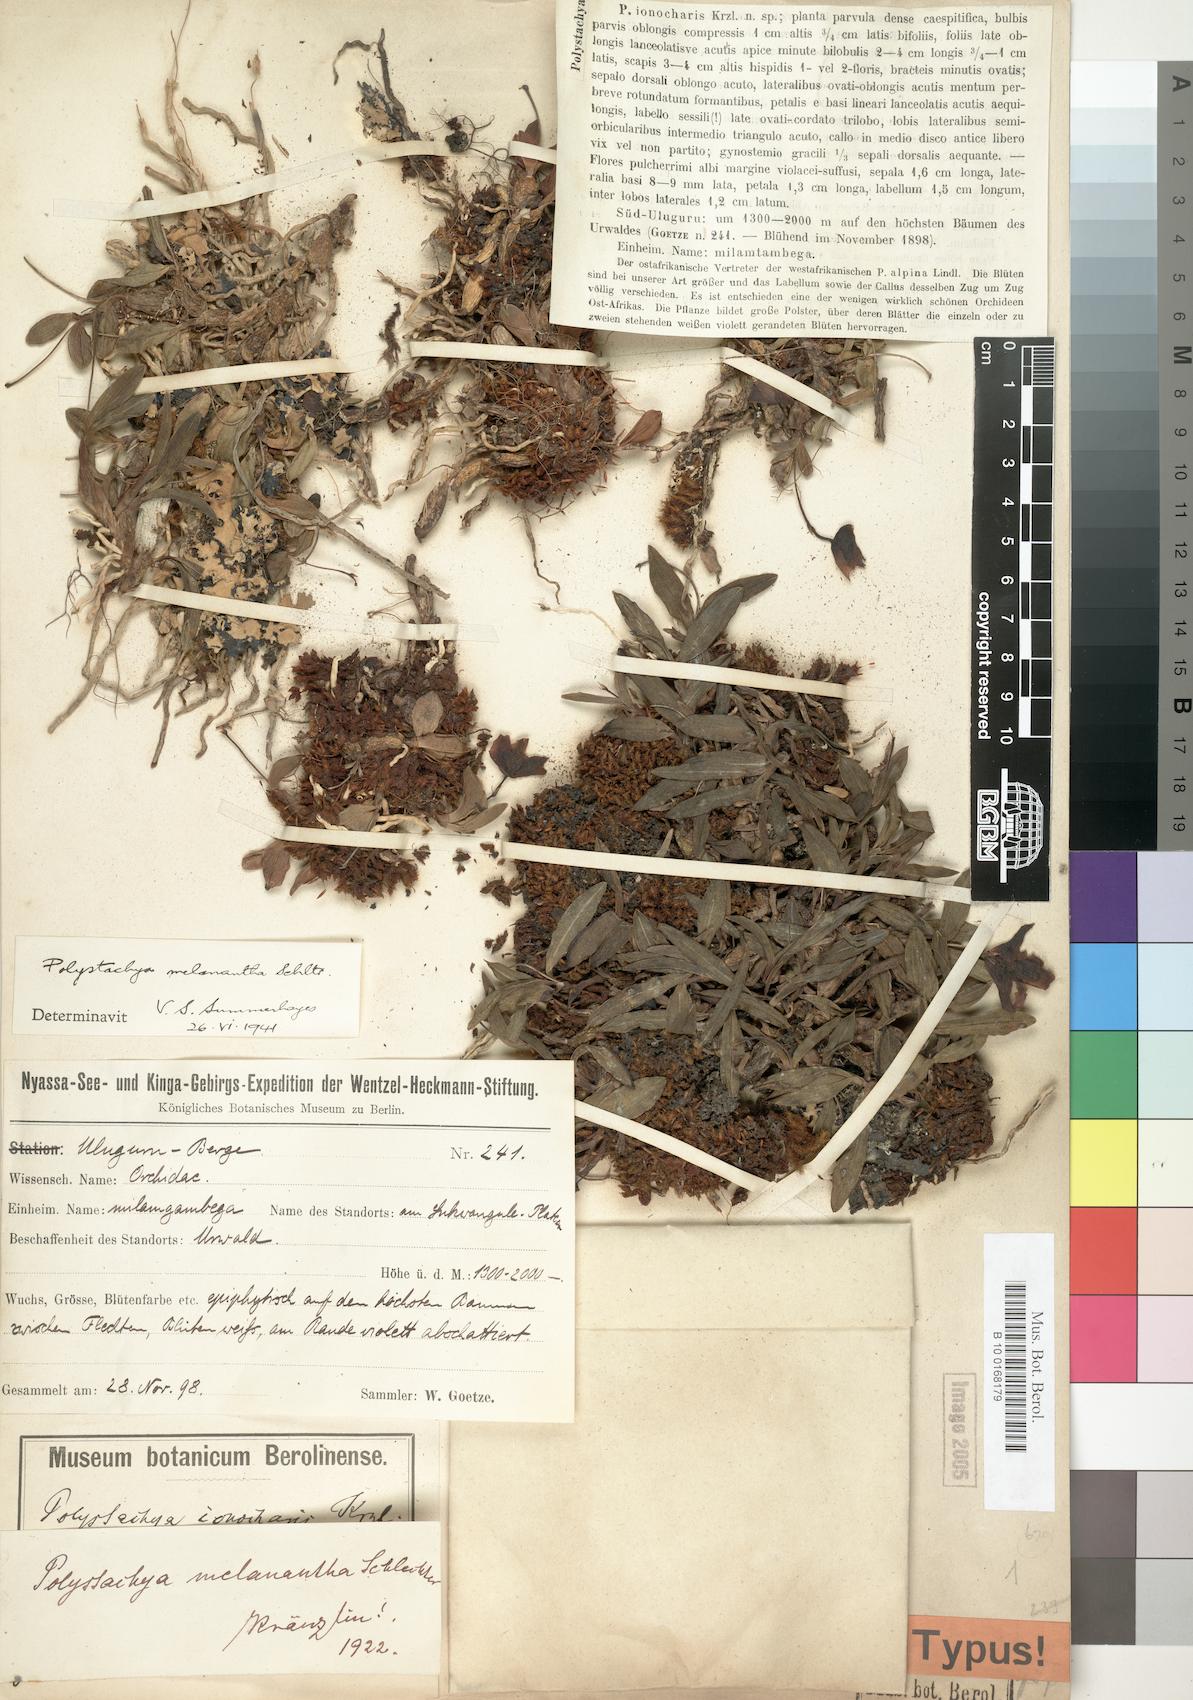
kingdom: Plantae
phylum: Tracheophyta
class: Liliopsida
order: Asparagales
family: Orchidaceae
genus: Polystachya
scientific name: Polystachya melanantha
